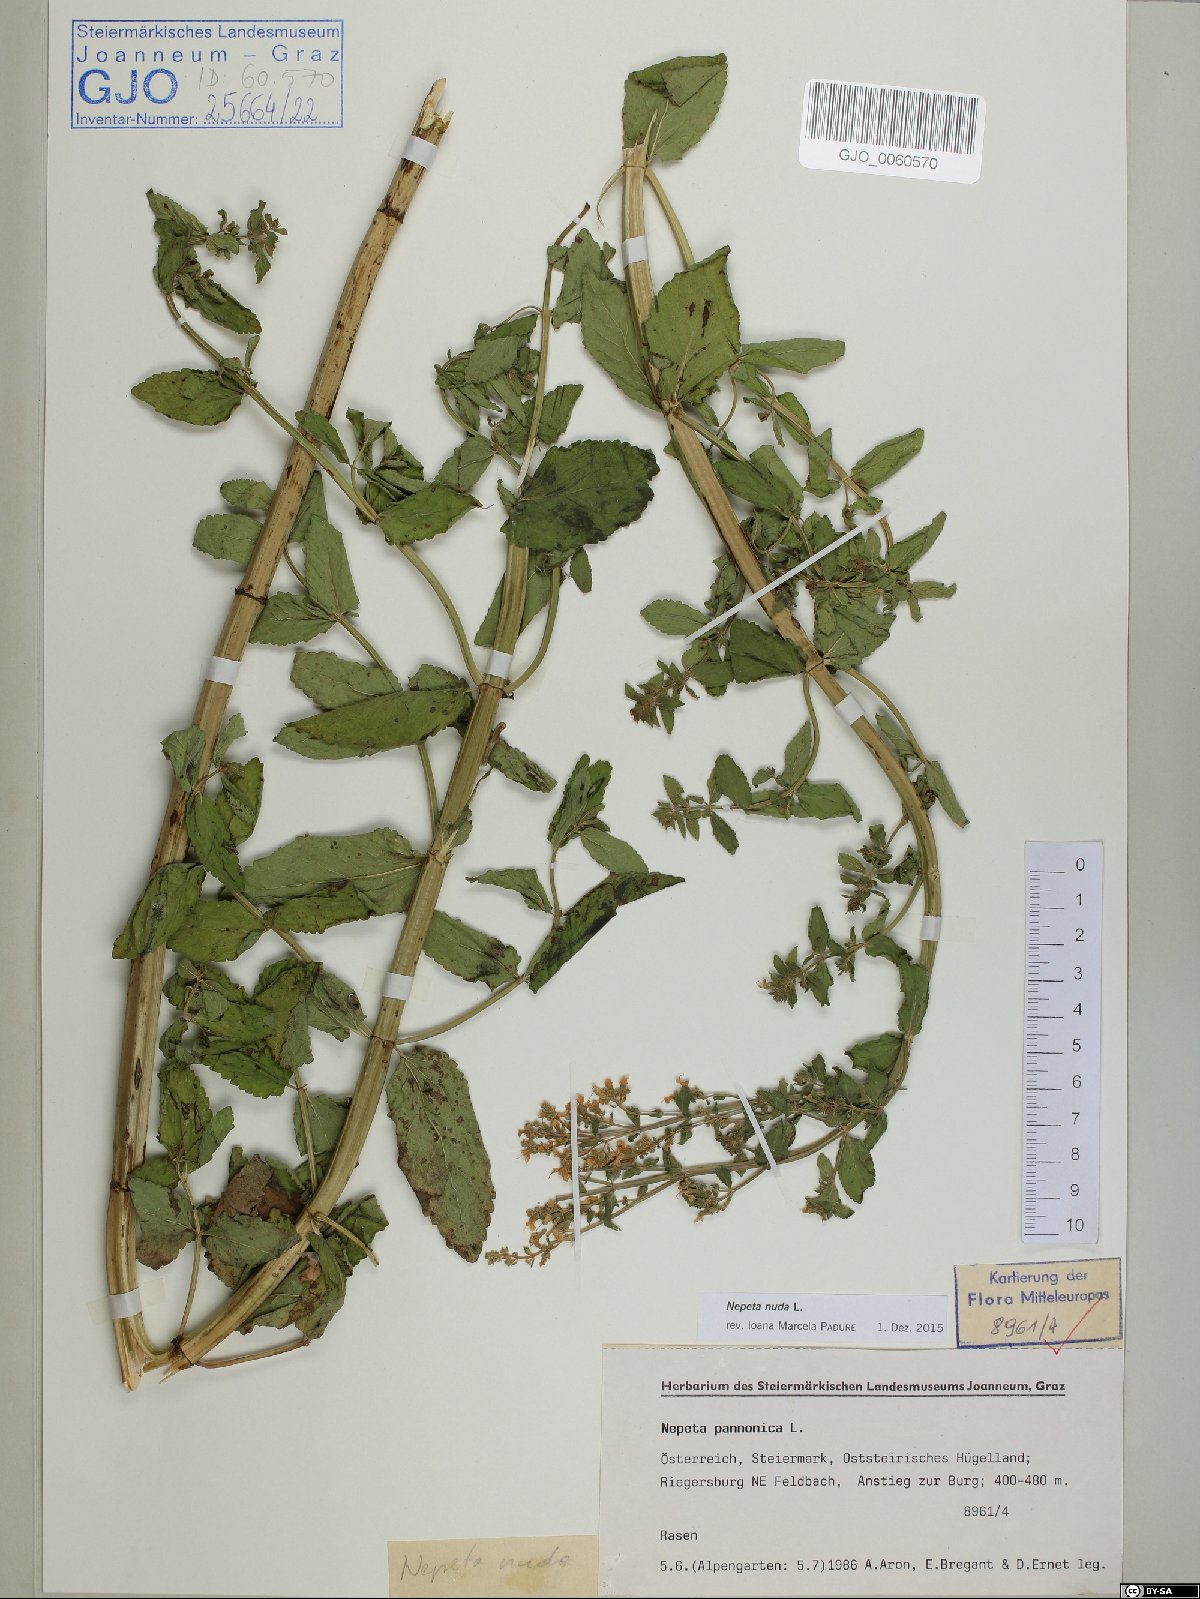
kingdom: Plantae
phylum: Tracheophyta
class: Magnoliopsida
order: Lamiales
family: Lamiaceae
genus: Nepeta
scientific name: Nepeta nuda
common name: Hairless catmint
